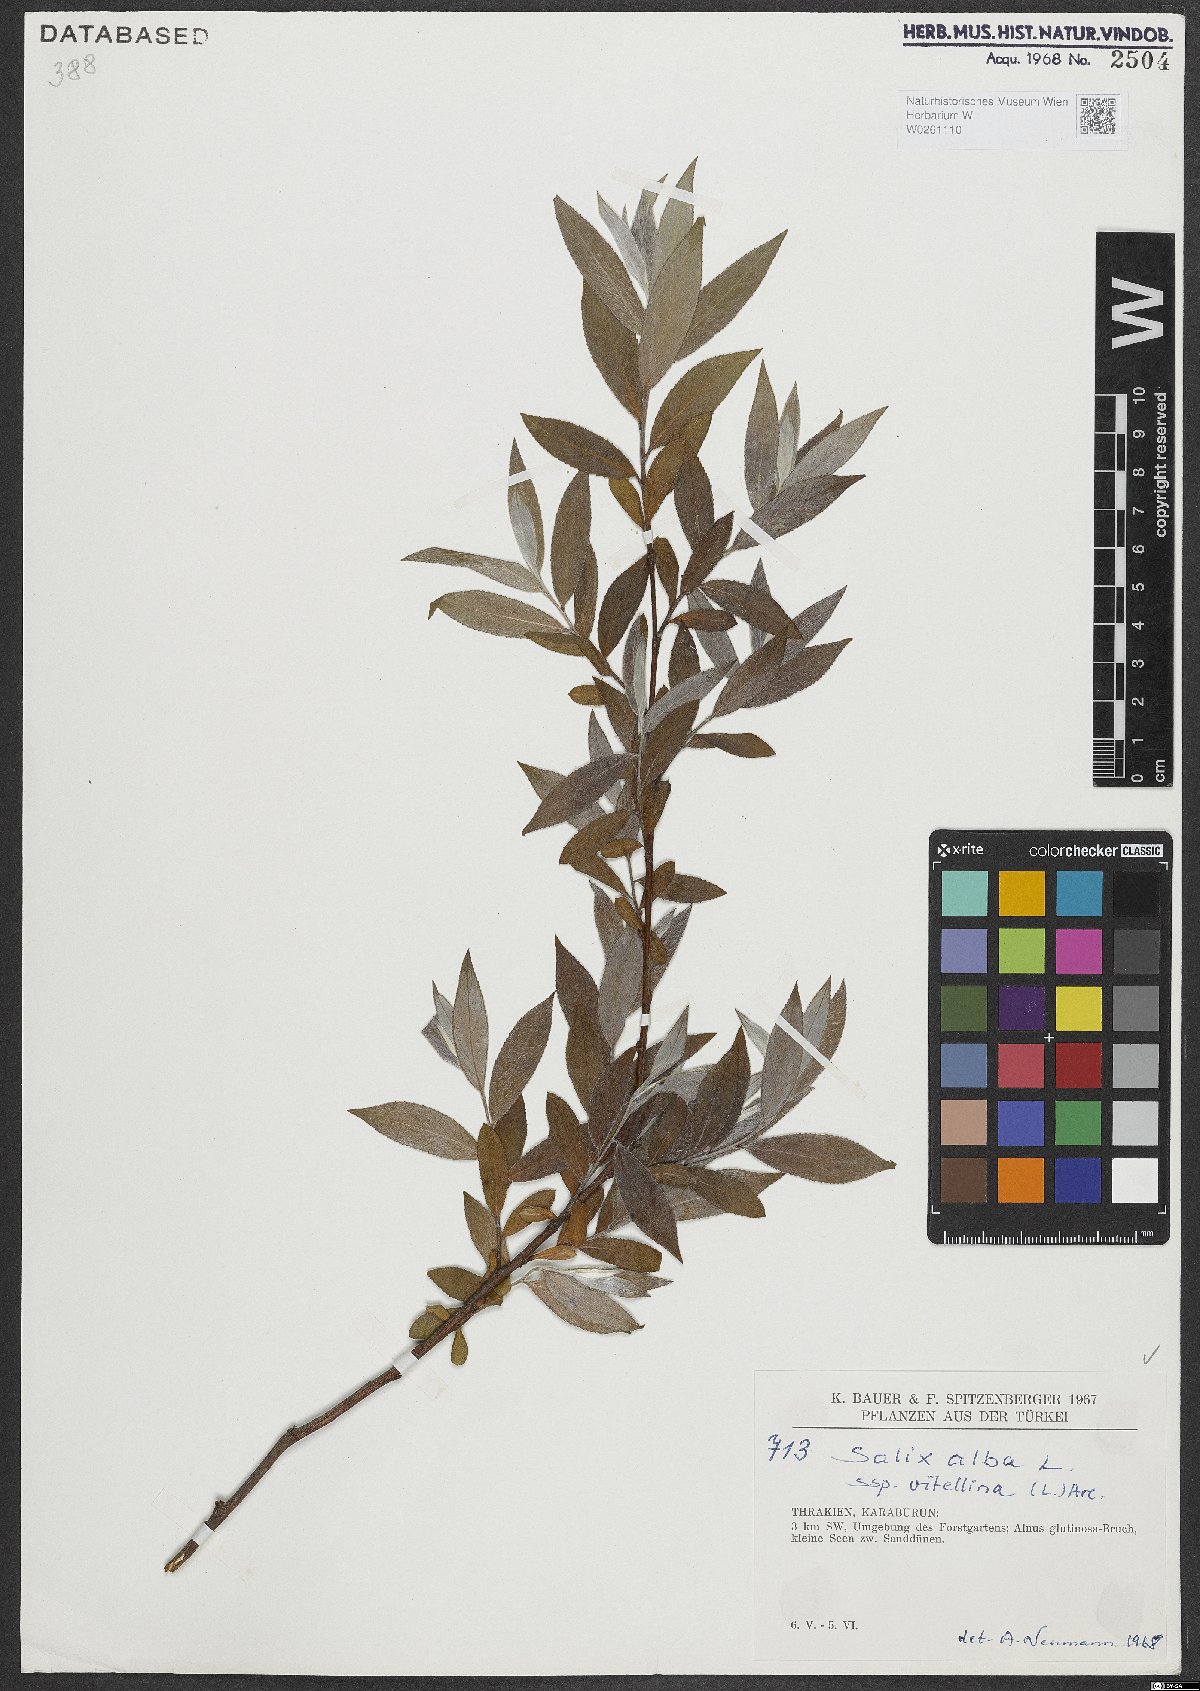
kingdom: Plantae
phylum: Tracheophyta
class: Magnoliopsida
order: Malpighiales
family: Salicaceae
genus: Salix
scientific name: Salix alba
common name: White willow
